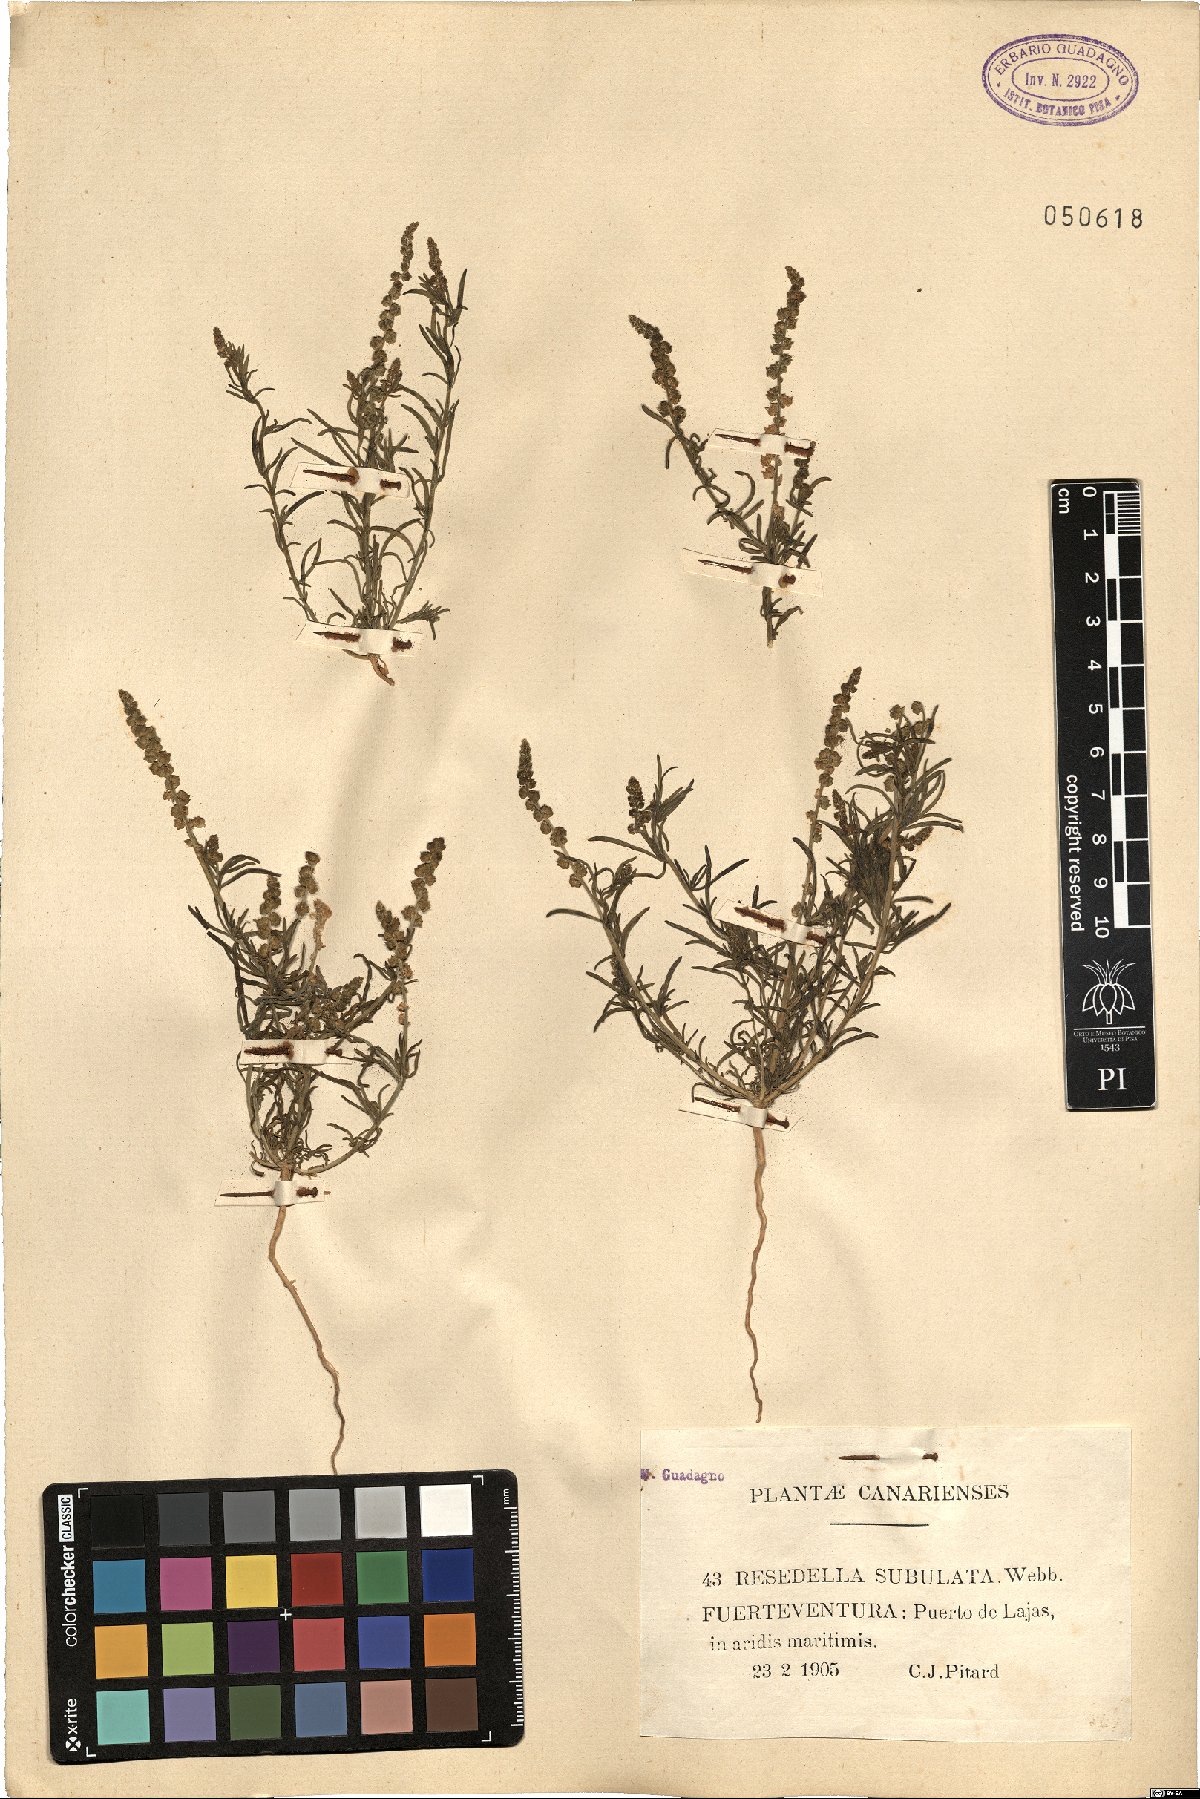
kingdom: Plantae
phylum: Tracheophyta
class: Magnoliopsida
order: Brassicales
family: Resedaceae
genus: Oligomeris
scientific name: Oligomeris linifolia
